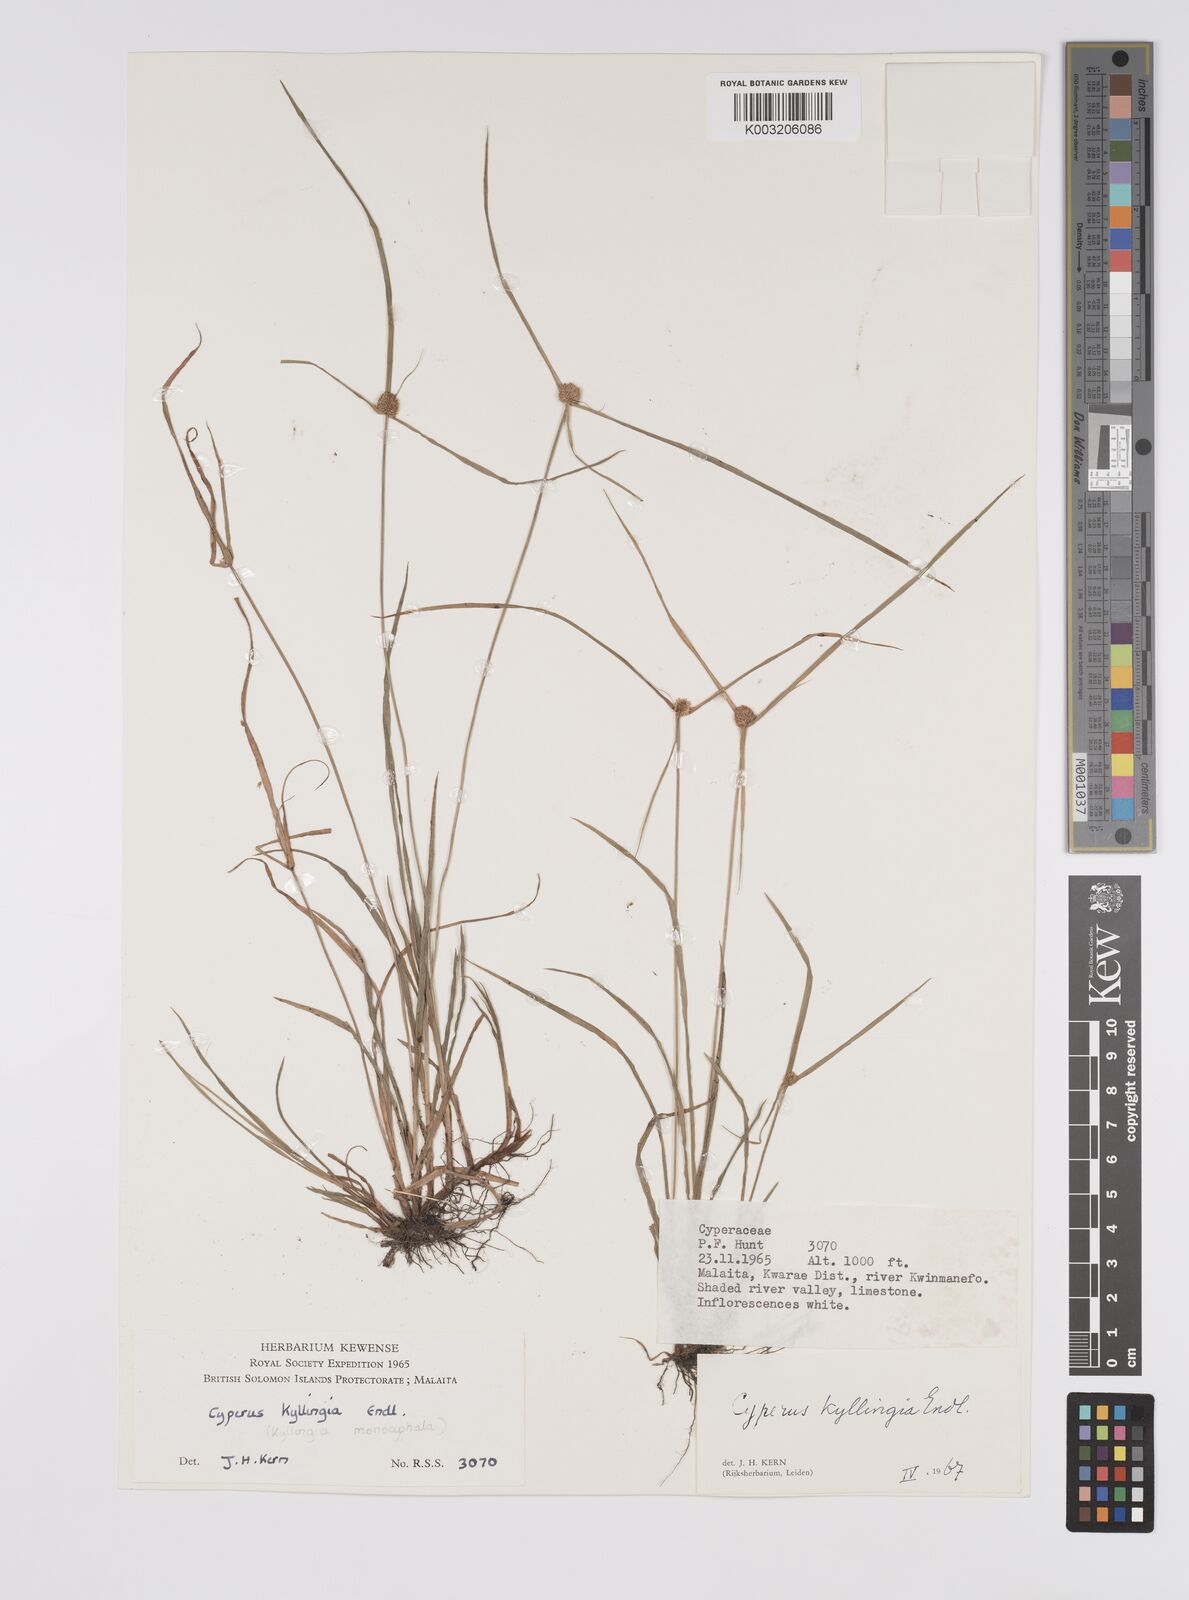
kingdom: Plantae
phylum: Tracheophyta
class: Liliopsida
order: Poales
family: Cyperaceae
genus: Cyperus
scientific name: Cyperus nemoralis
